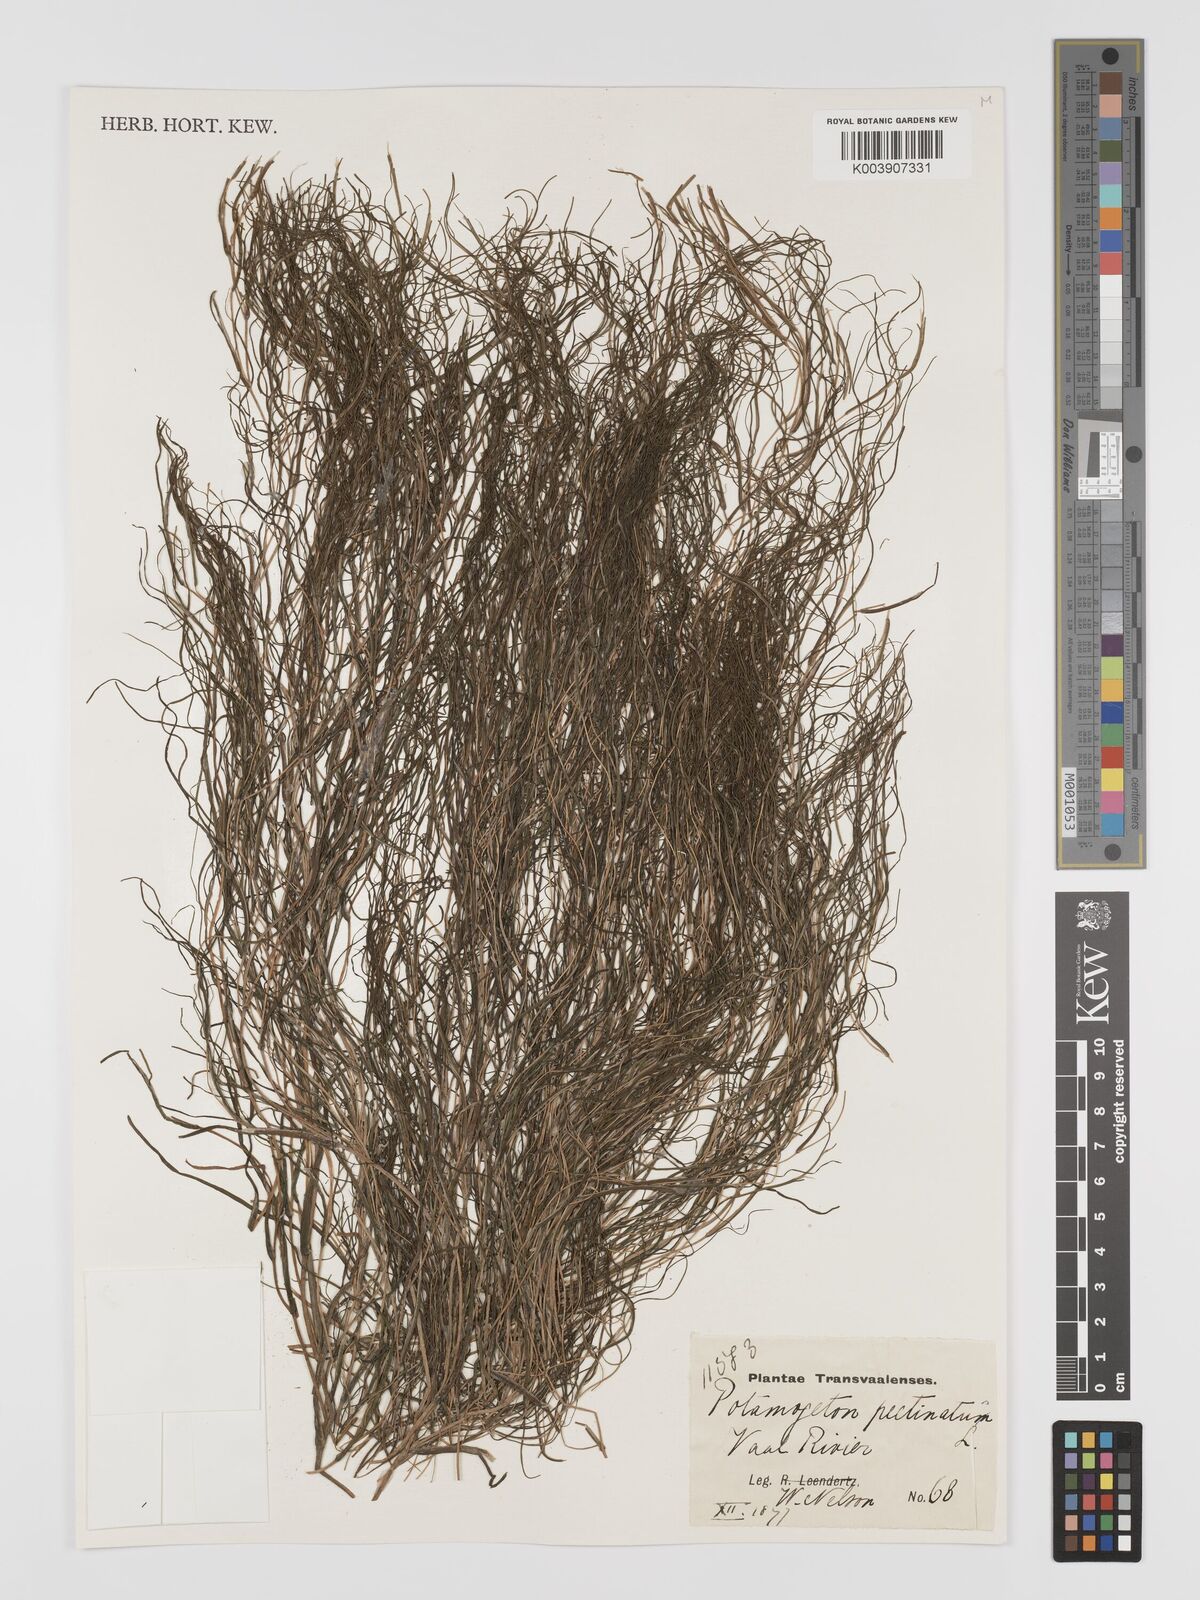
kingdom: Plantae
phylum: Tracheophyta
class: Liliopsida
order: Alismatales
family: Potamogetonaceae
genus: Stuckenia
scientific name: Stuckenia pectinata
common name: Sago pondweed
